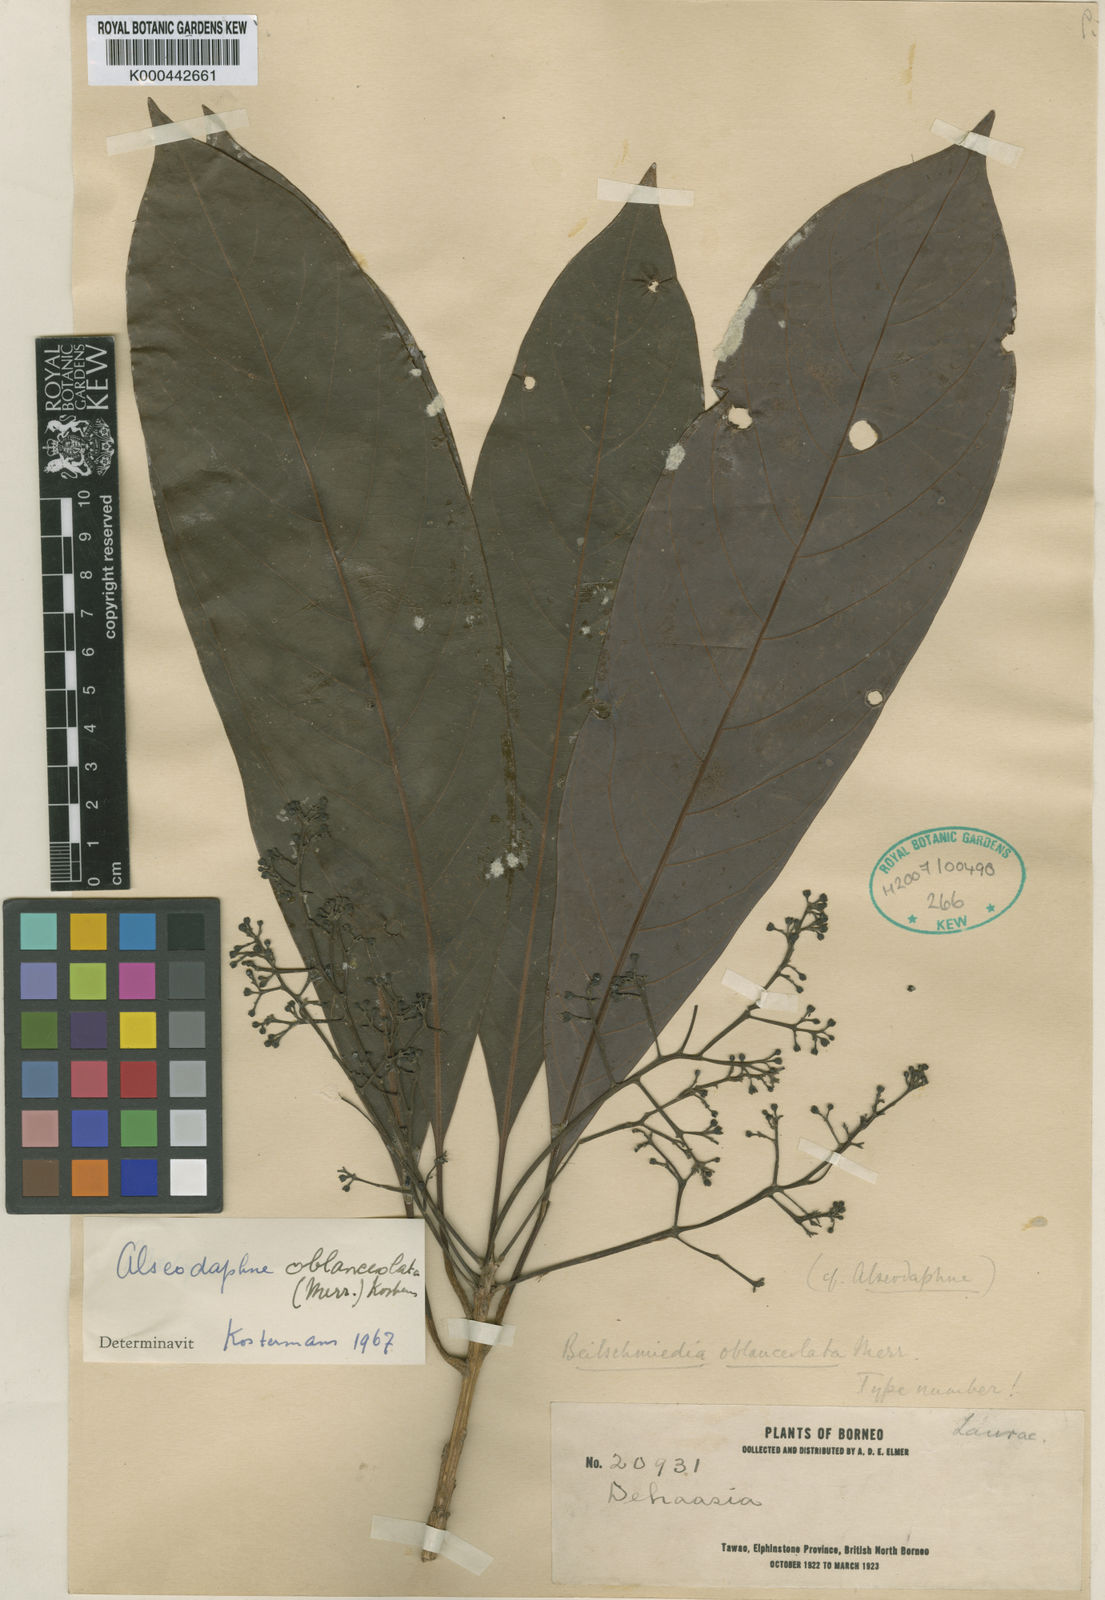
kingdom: Plantae
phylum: Tracheophyta
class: Magnoliopsida
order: Laurales
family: Lauraceae
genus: Alseodaphne
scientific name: Alseodaphne oblanceolata
